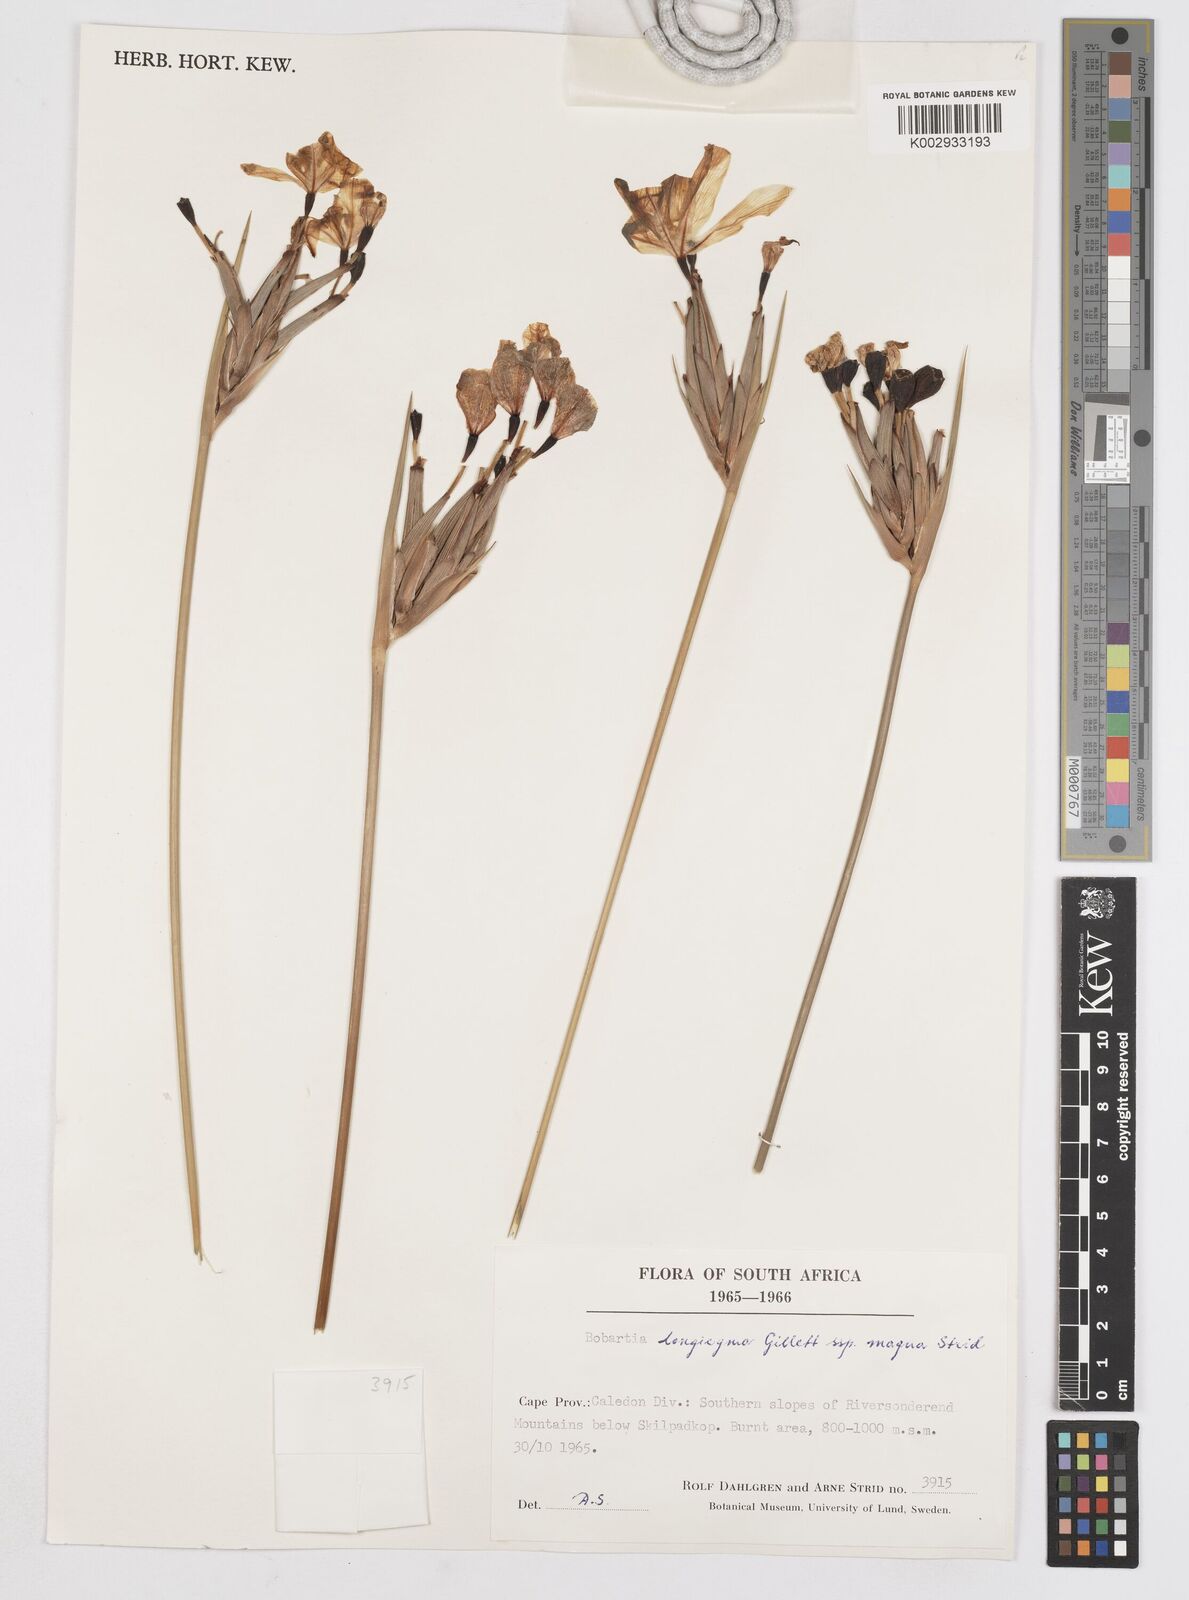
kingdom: Plantae
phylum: Tracheophyta
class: Liliopsida
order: Asparagales
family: Iridaceae
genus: Bobartia
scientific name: Bobartia longicyma
